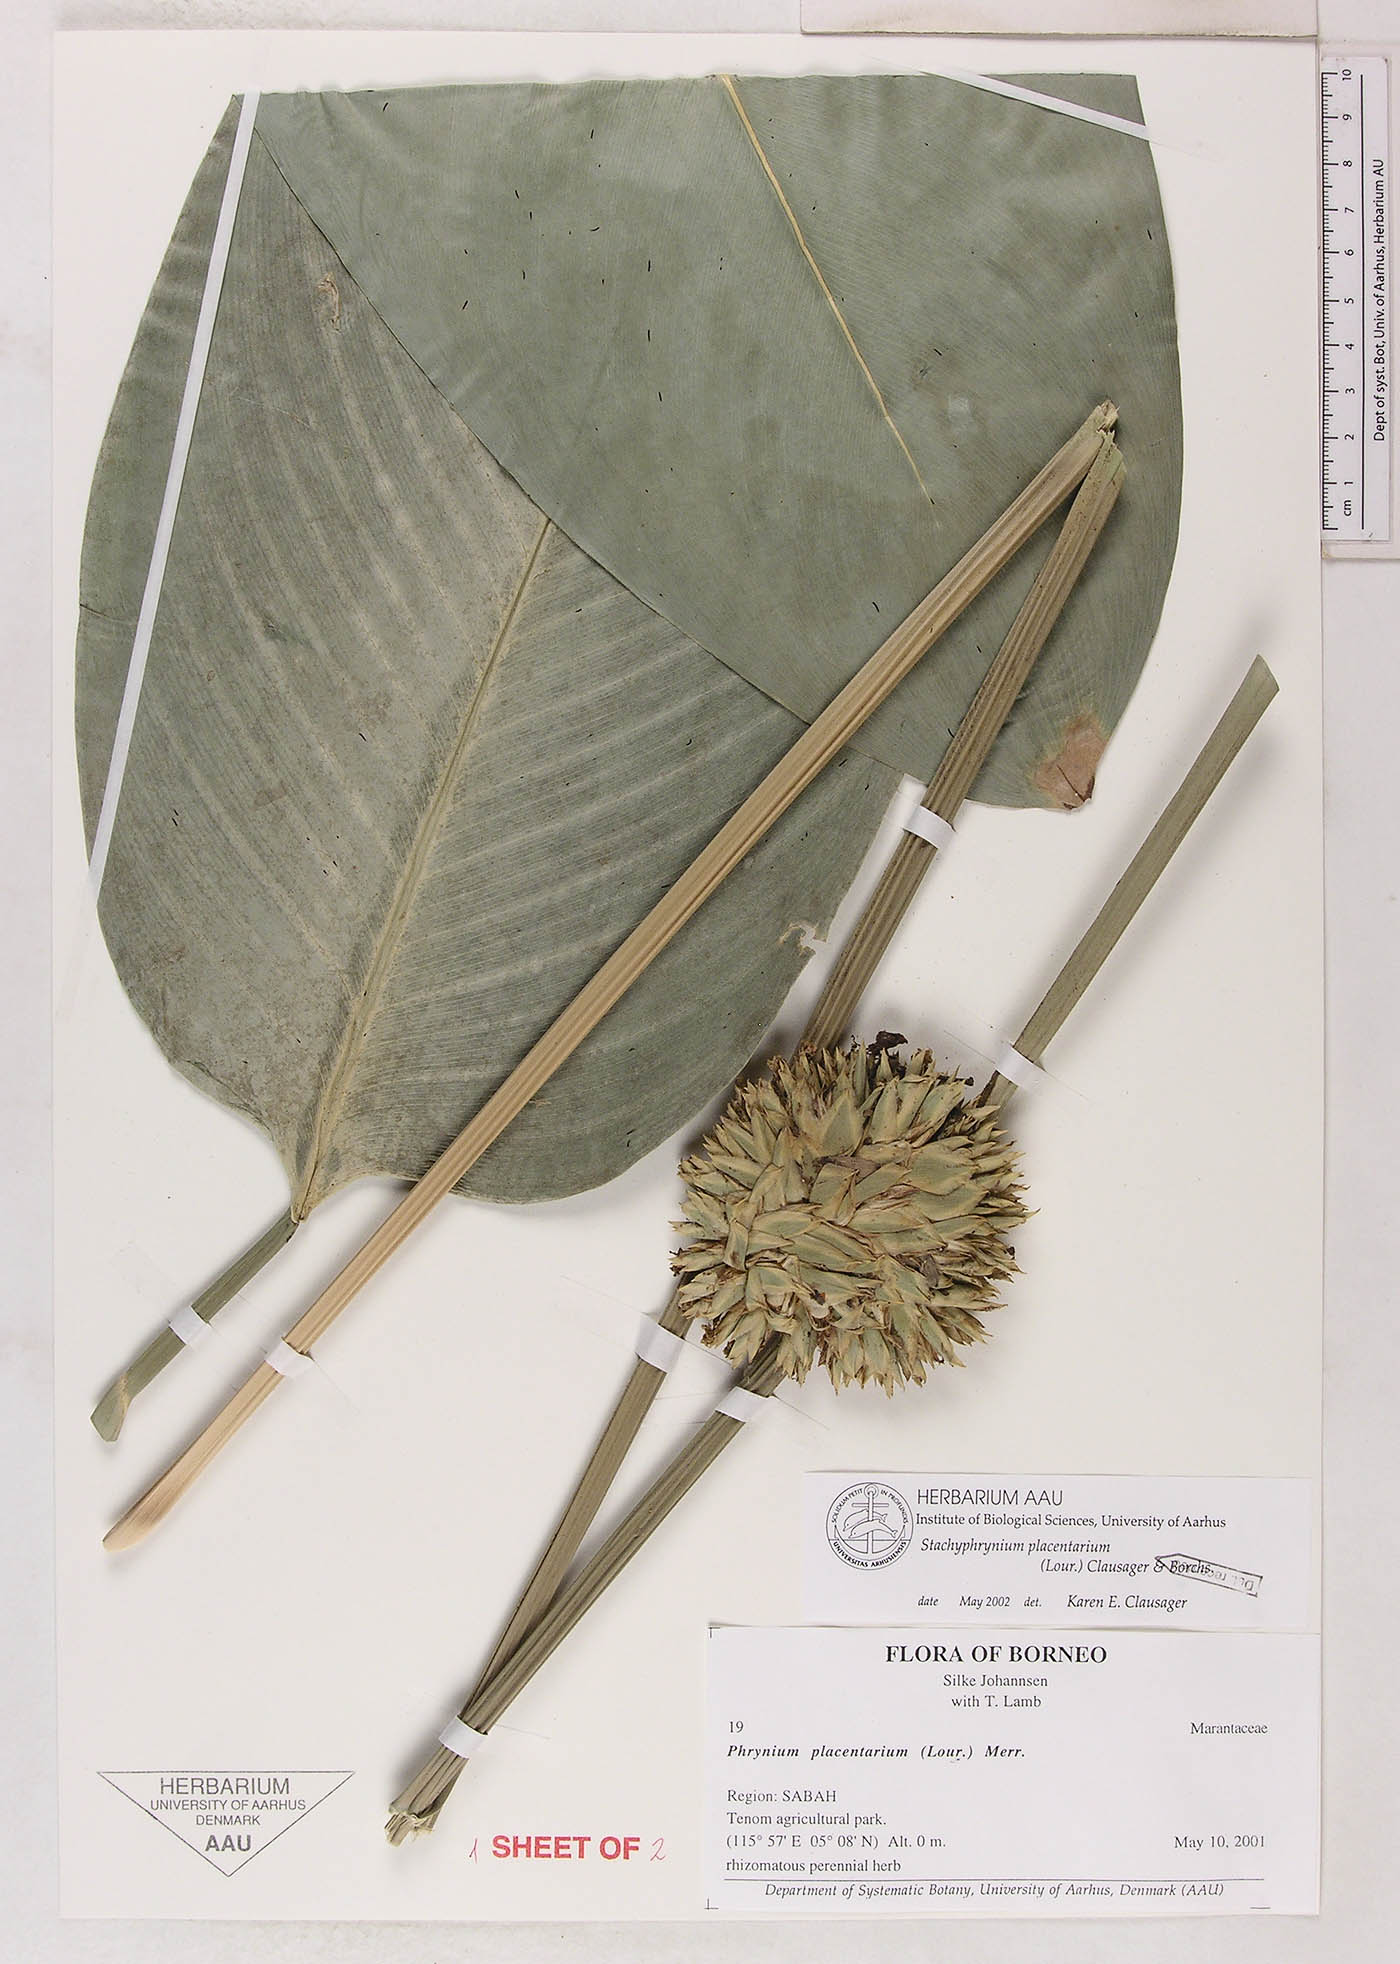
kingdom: Plantae
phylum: Tracheophyta
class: Liliopsida
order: Zingiberales
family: Marantaceae
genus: Stachyphrynium
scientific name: Stachyphrynium placentarium
